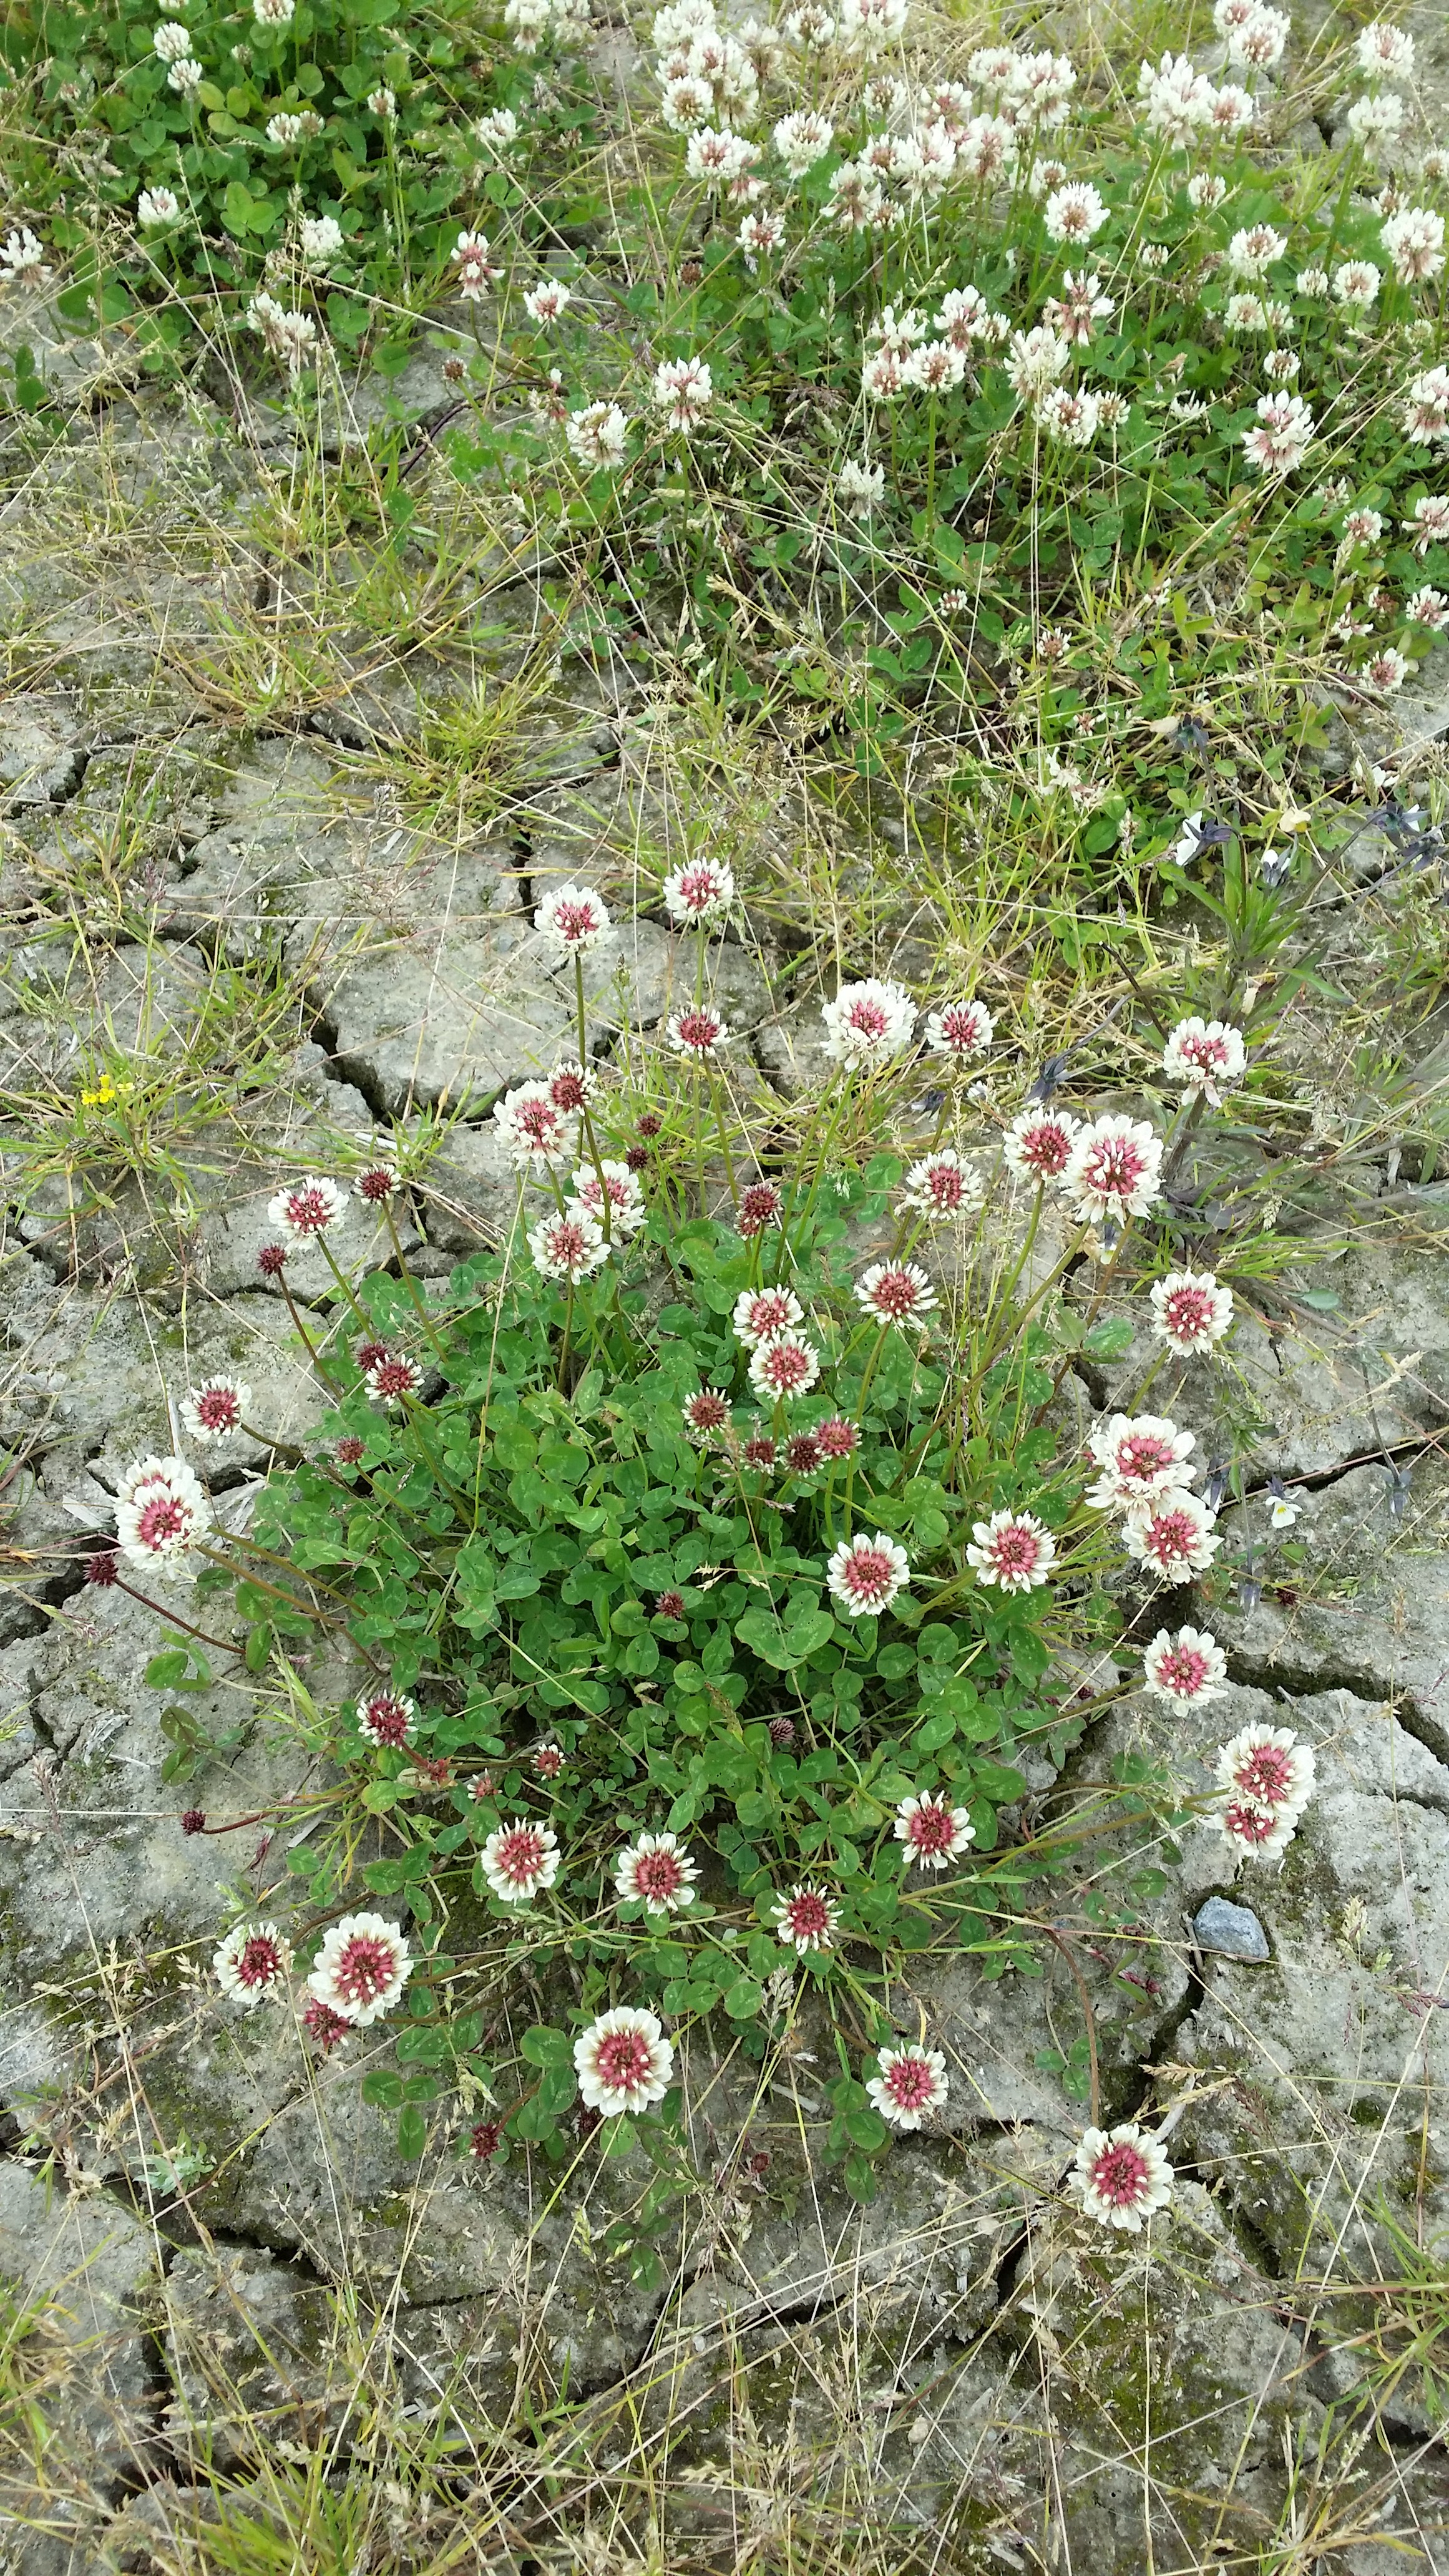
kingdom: Plantae
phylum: Tracheophyta
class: Magnoliopsida
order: Fabales
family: Fabaceae
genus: Trifolium
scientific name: Trifolium repens
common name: White clover
